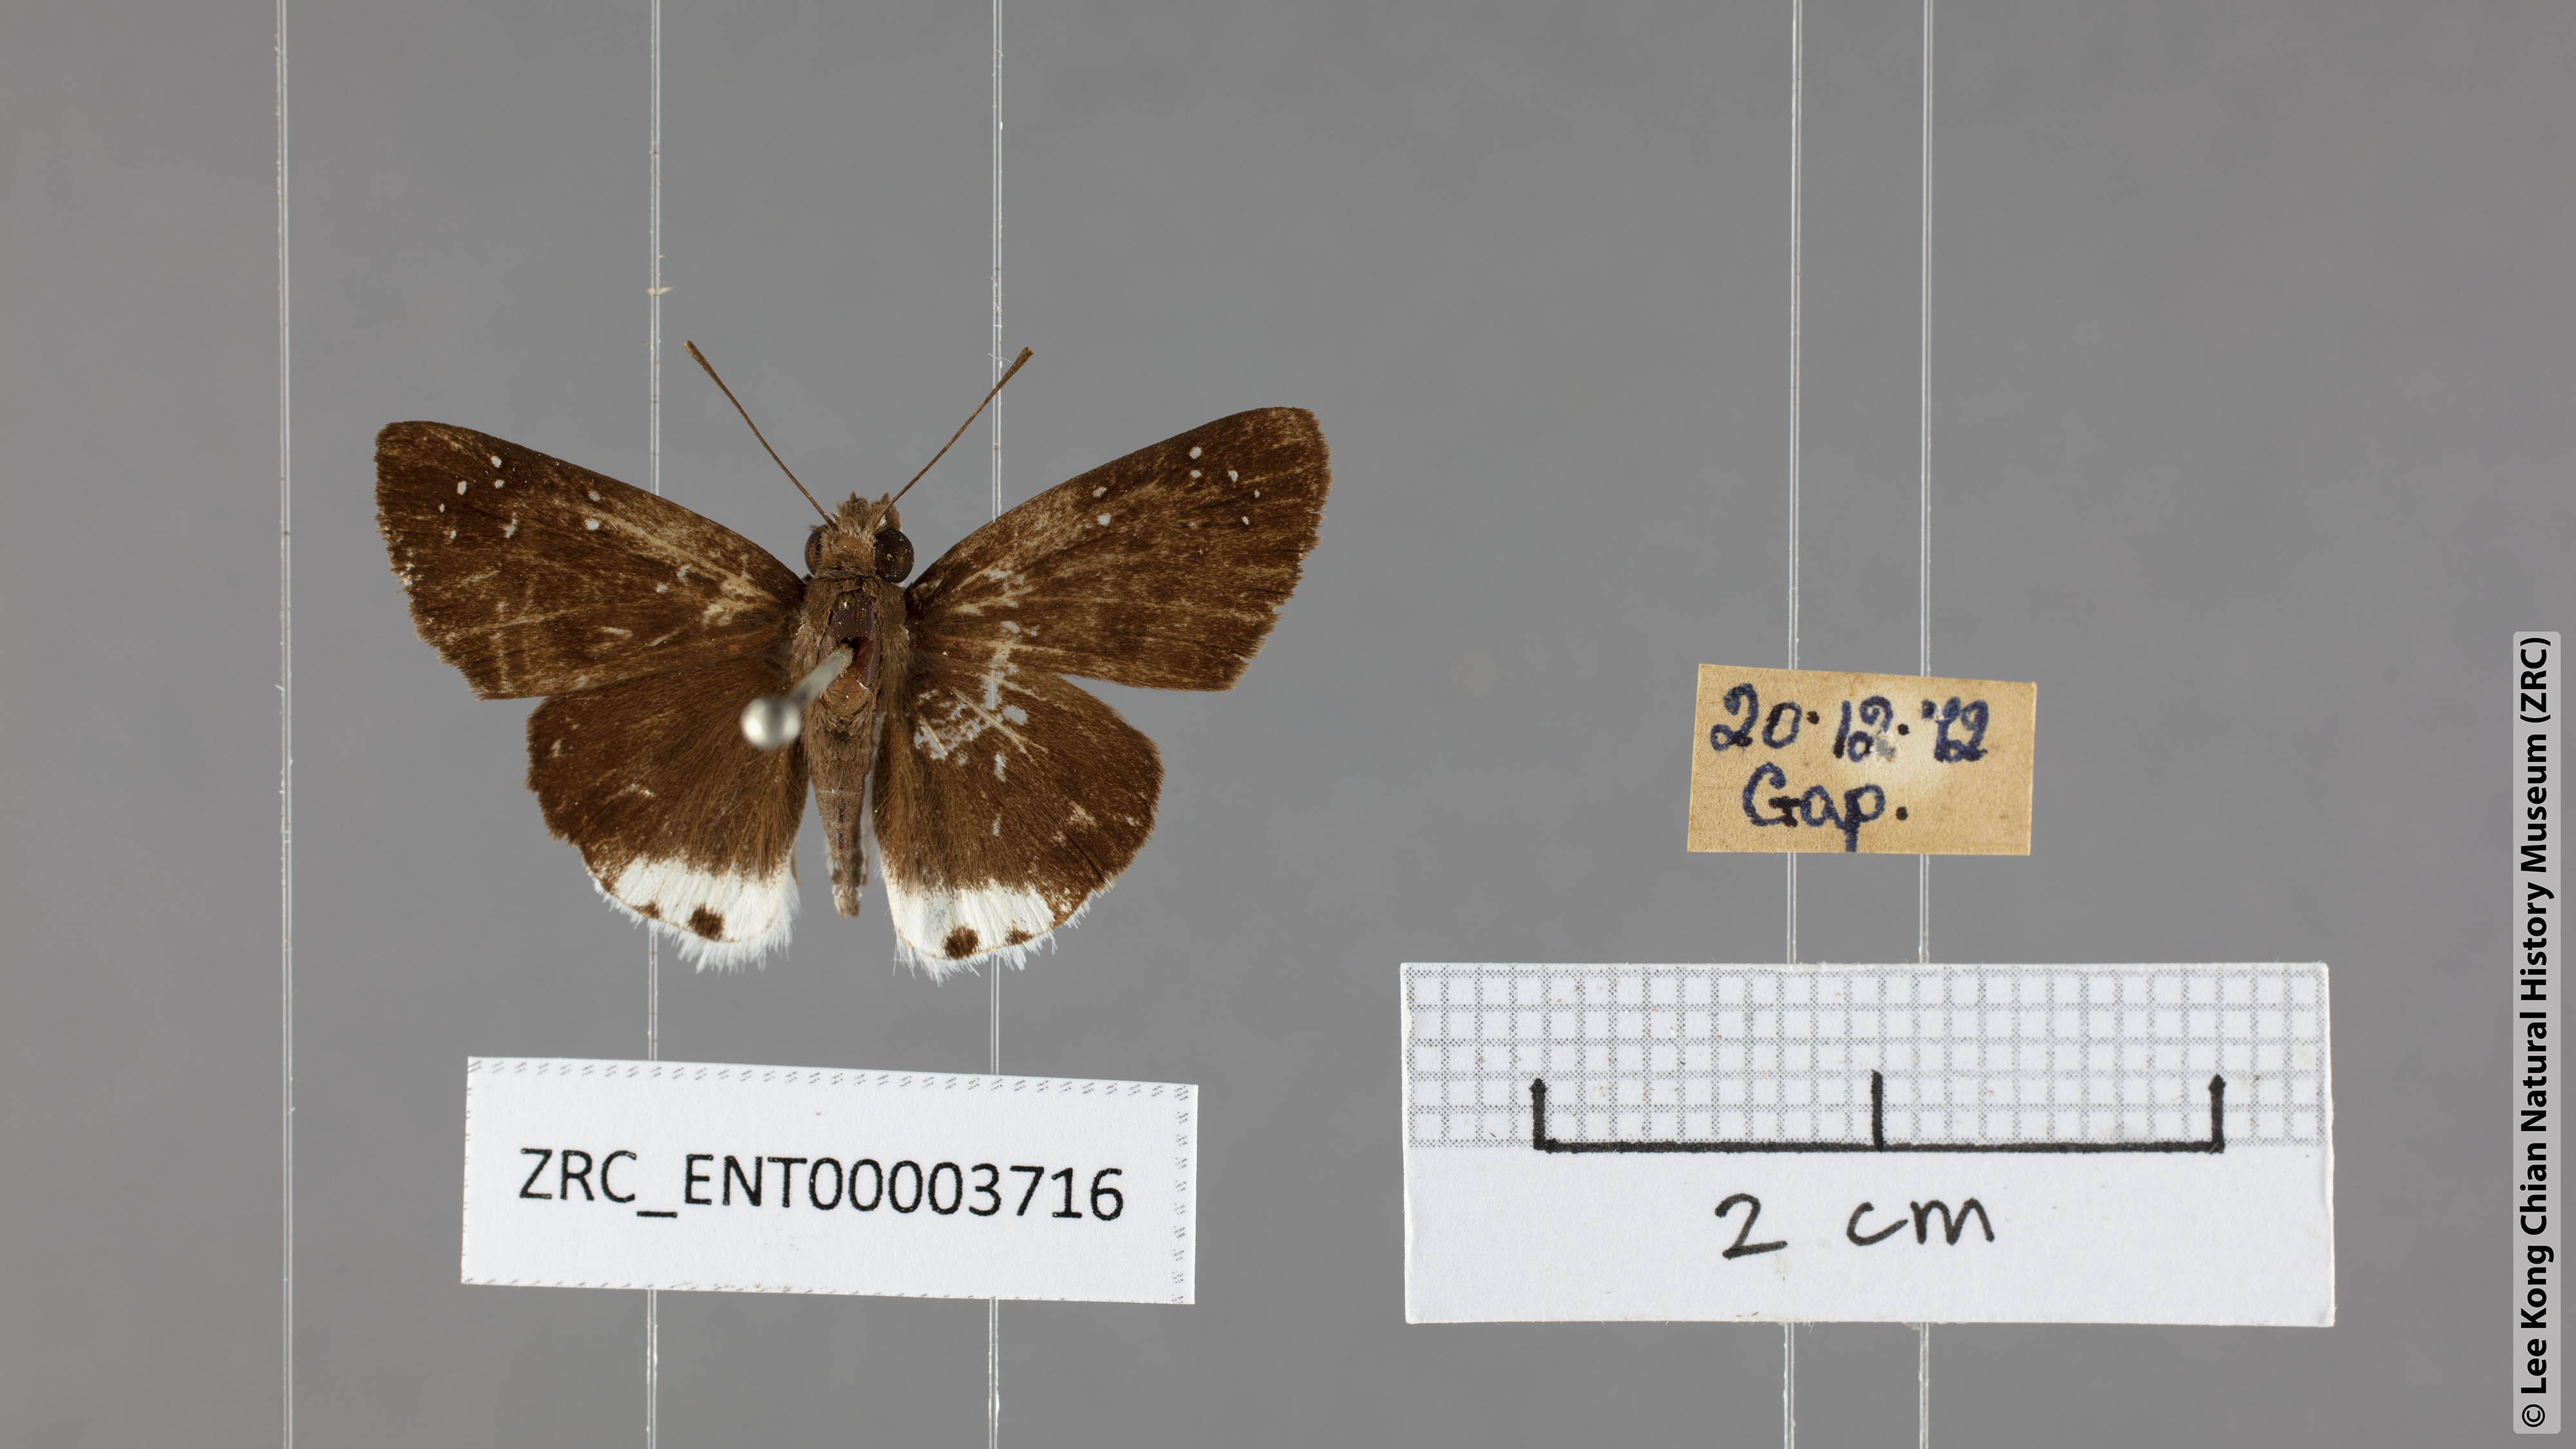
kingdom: Animalia
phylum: Arthropoda
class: Insecta
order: Lepidoptera
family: Hesperiidae
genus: Tagiades
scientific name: Tagiades toba
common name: Different-spotted snow flat
